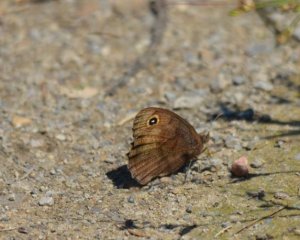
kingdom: Animalia
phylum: Arthropoda
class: Insecta
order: Lepidoptera
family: Nymphalidae
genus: Cercyonis
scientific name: Cercyonis pegala
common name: Common Wood-Nymph
